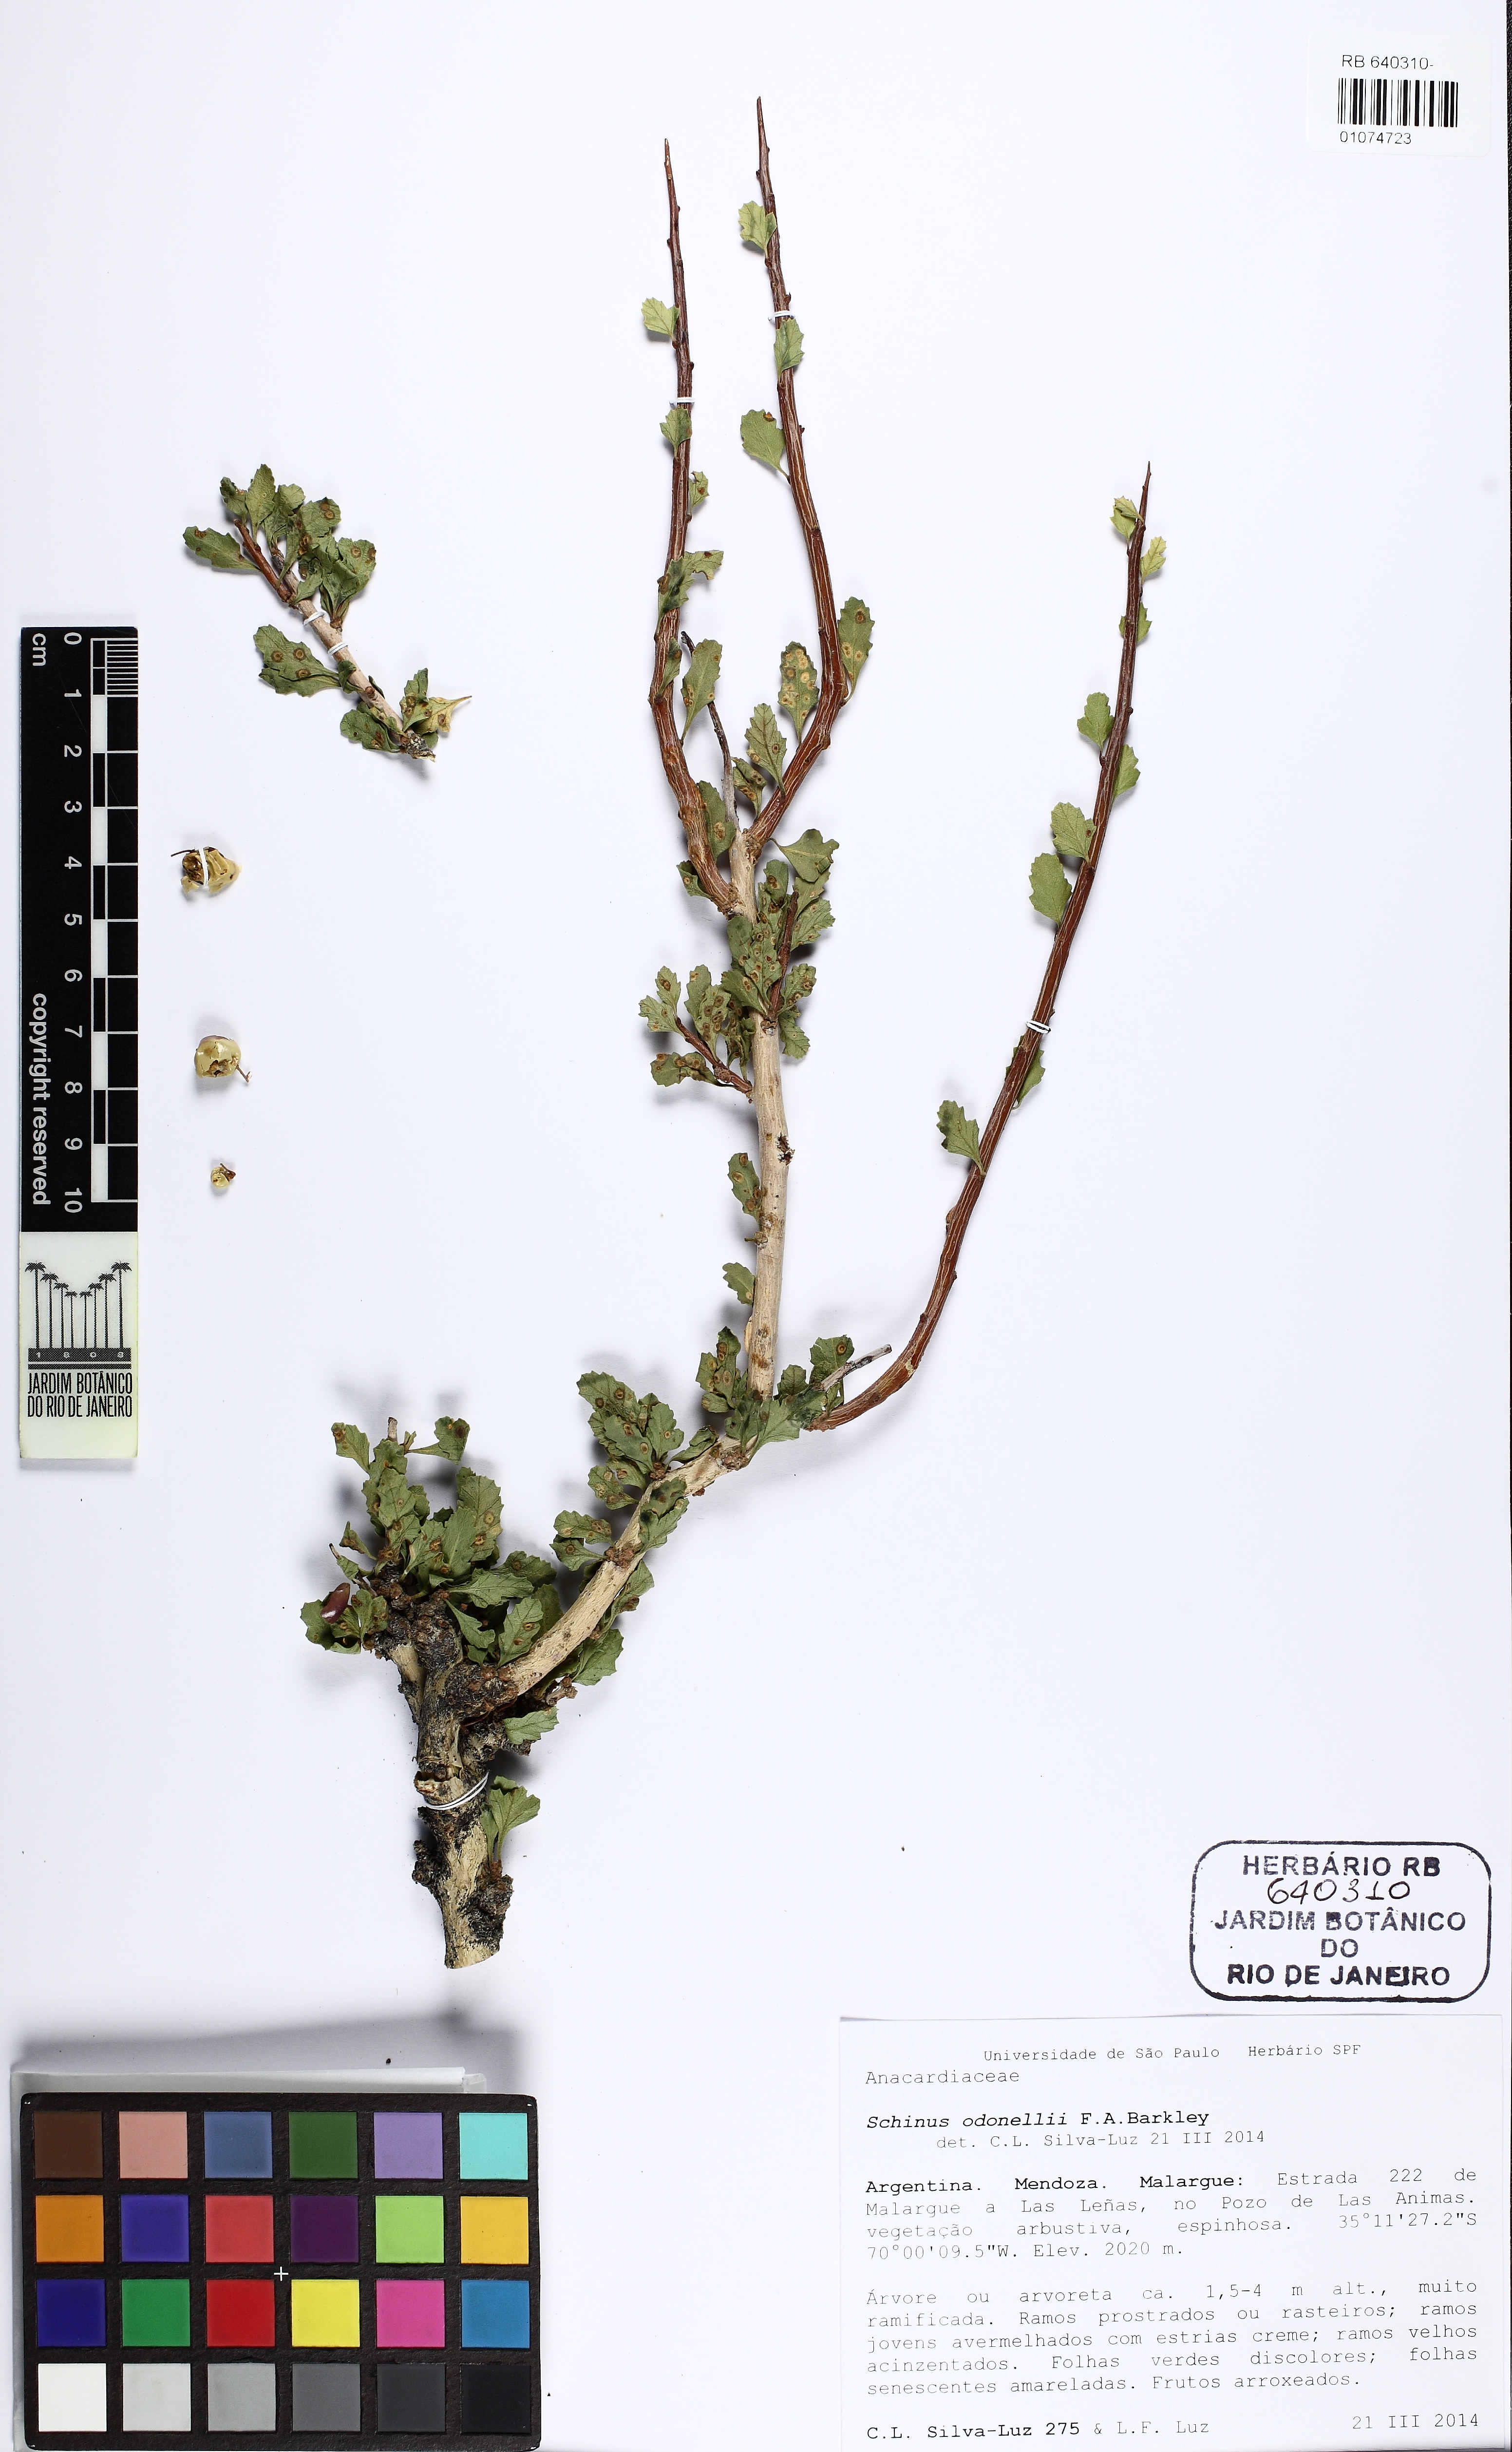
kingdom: Plantae
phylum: Tracheophyta
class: Magnoliopsida
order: Sapindales
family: Anacardiaceae
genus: Schinus
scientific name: Schinus odonellii
